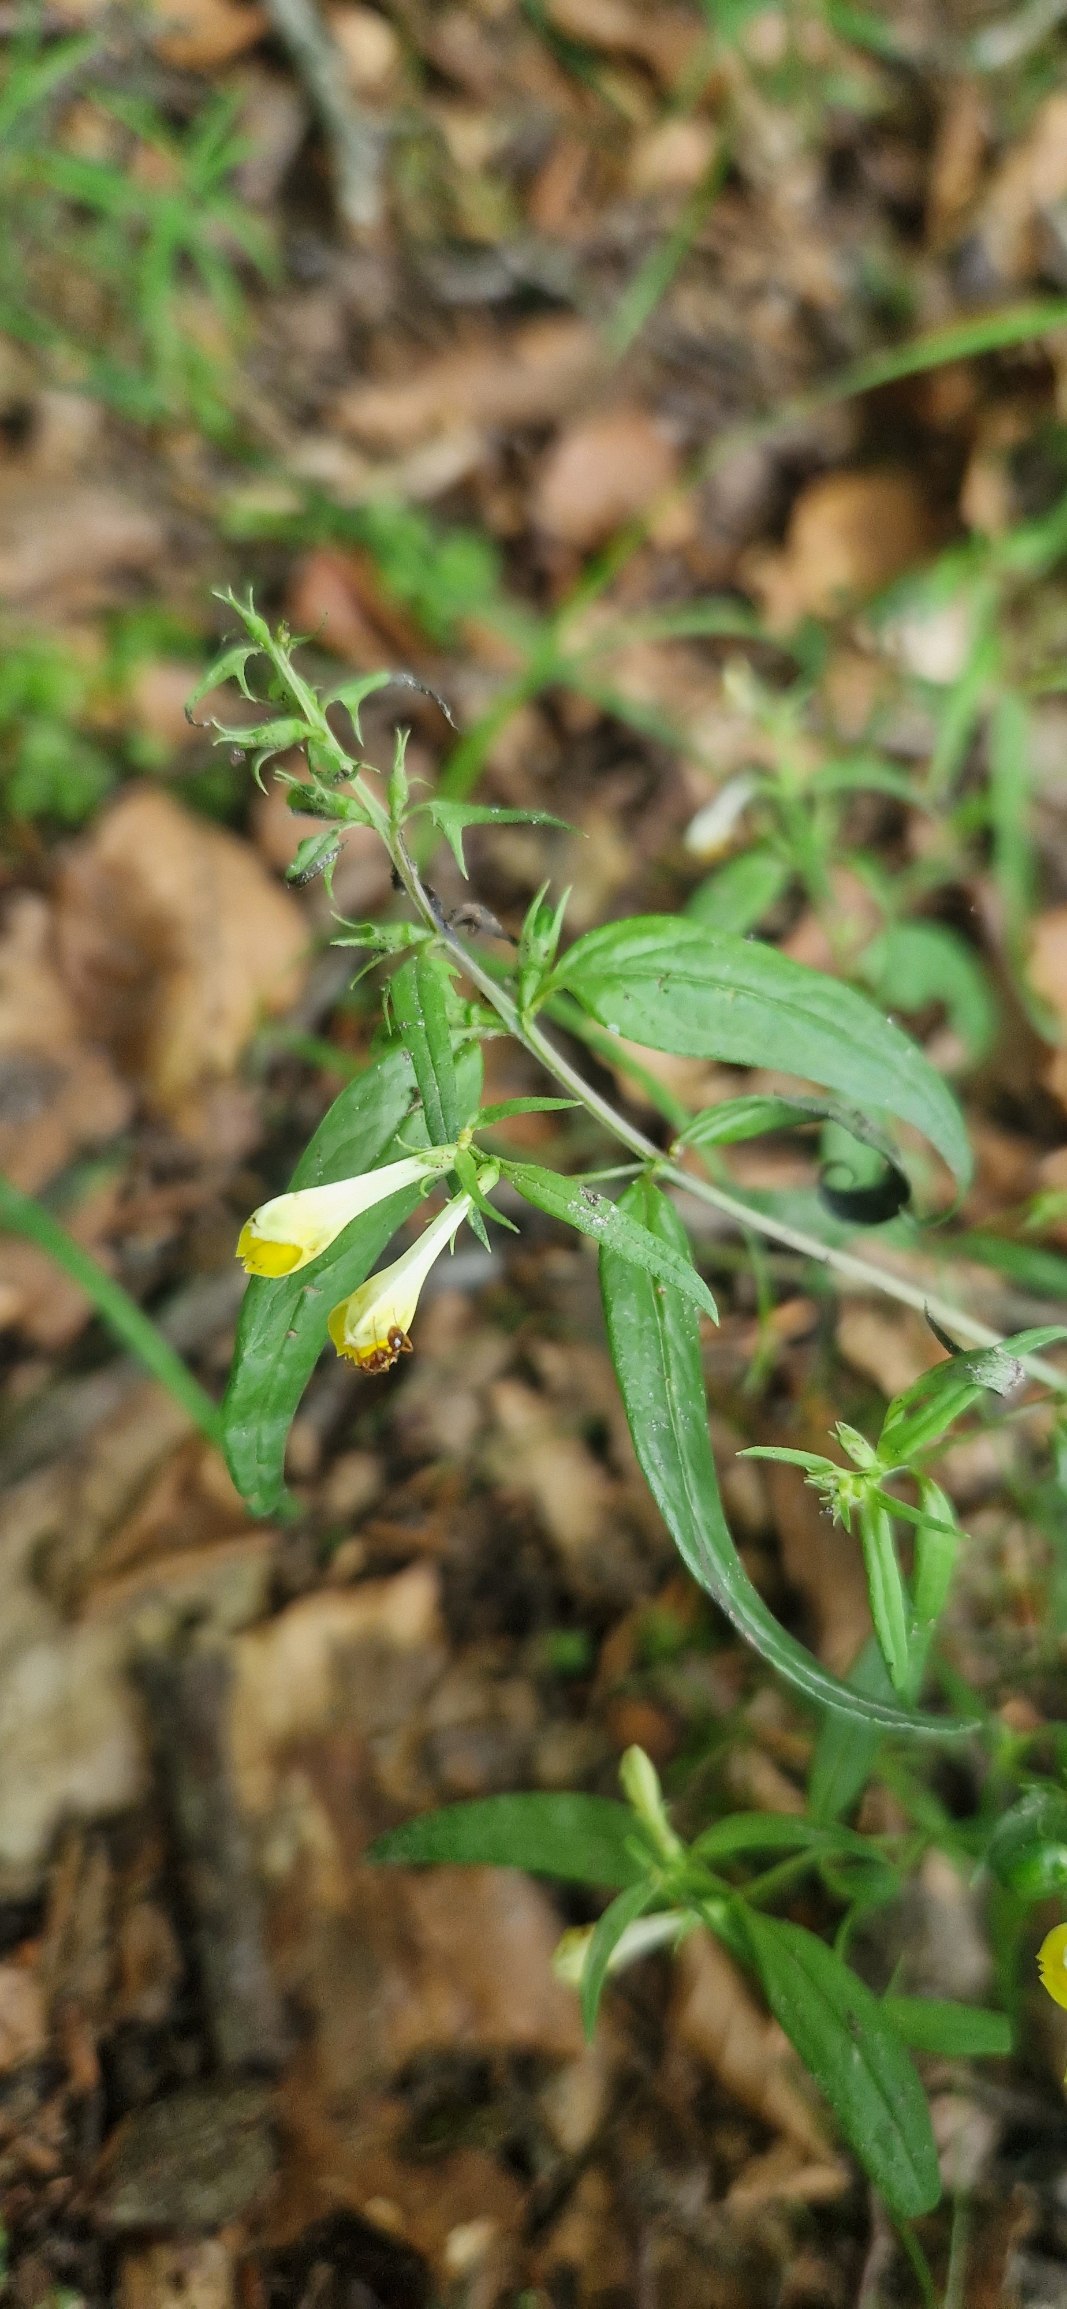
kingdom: Plantae
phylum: Tracheophyta
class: Magnoliopsida
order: Lamiales
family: Orobanchaceae
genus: Melampyrum
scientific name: Melampyrum pratense
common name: Almindelig kohvede
